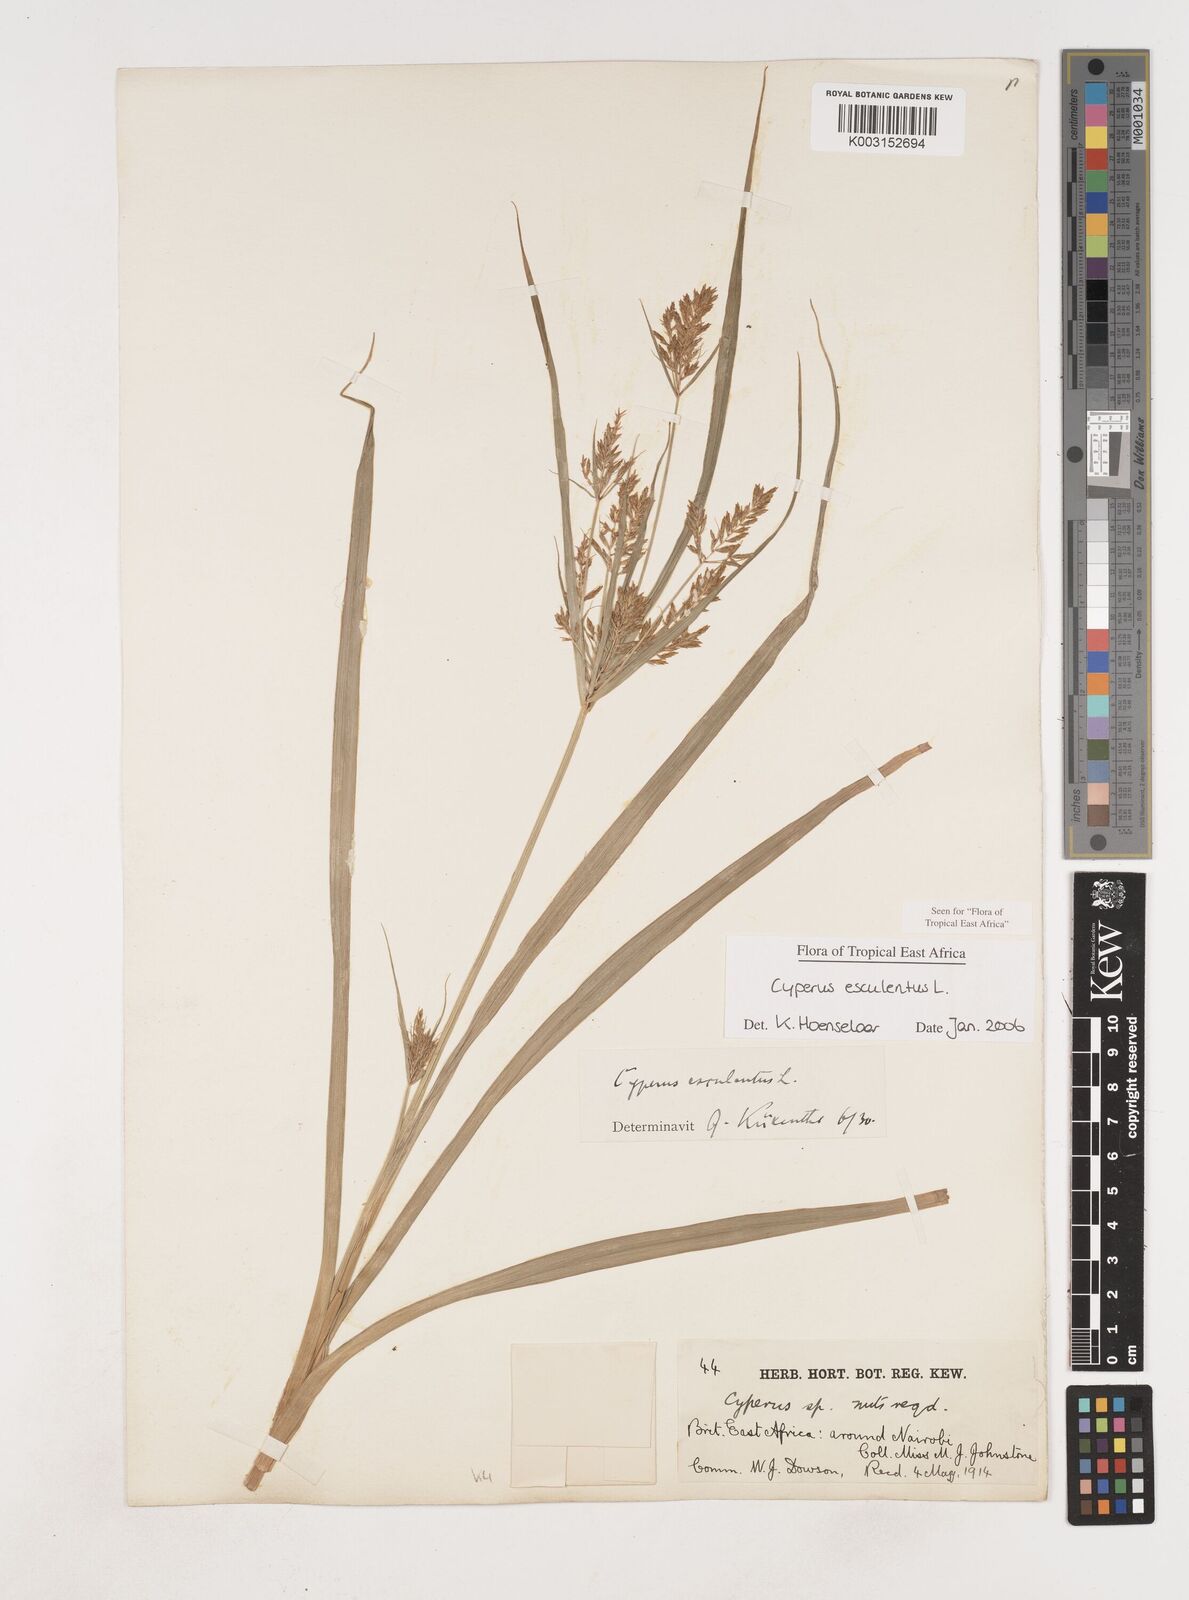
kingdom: Plantae
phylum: Tracheophyta
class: Liliopsida
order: Poales
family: Cyperaceae
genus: Cyperus
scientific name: Cyperus esculentus
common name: Yellow nutsedge
